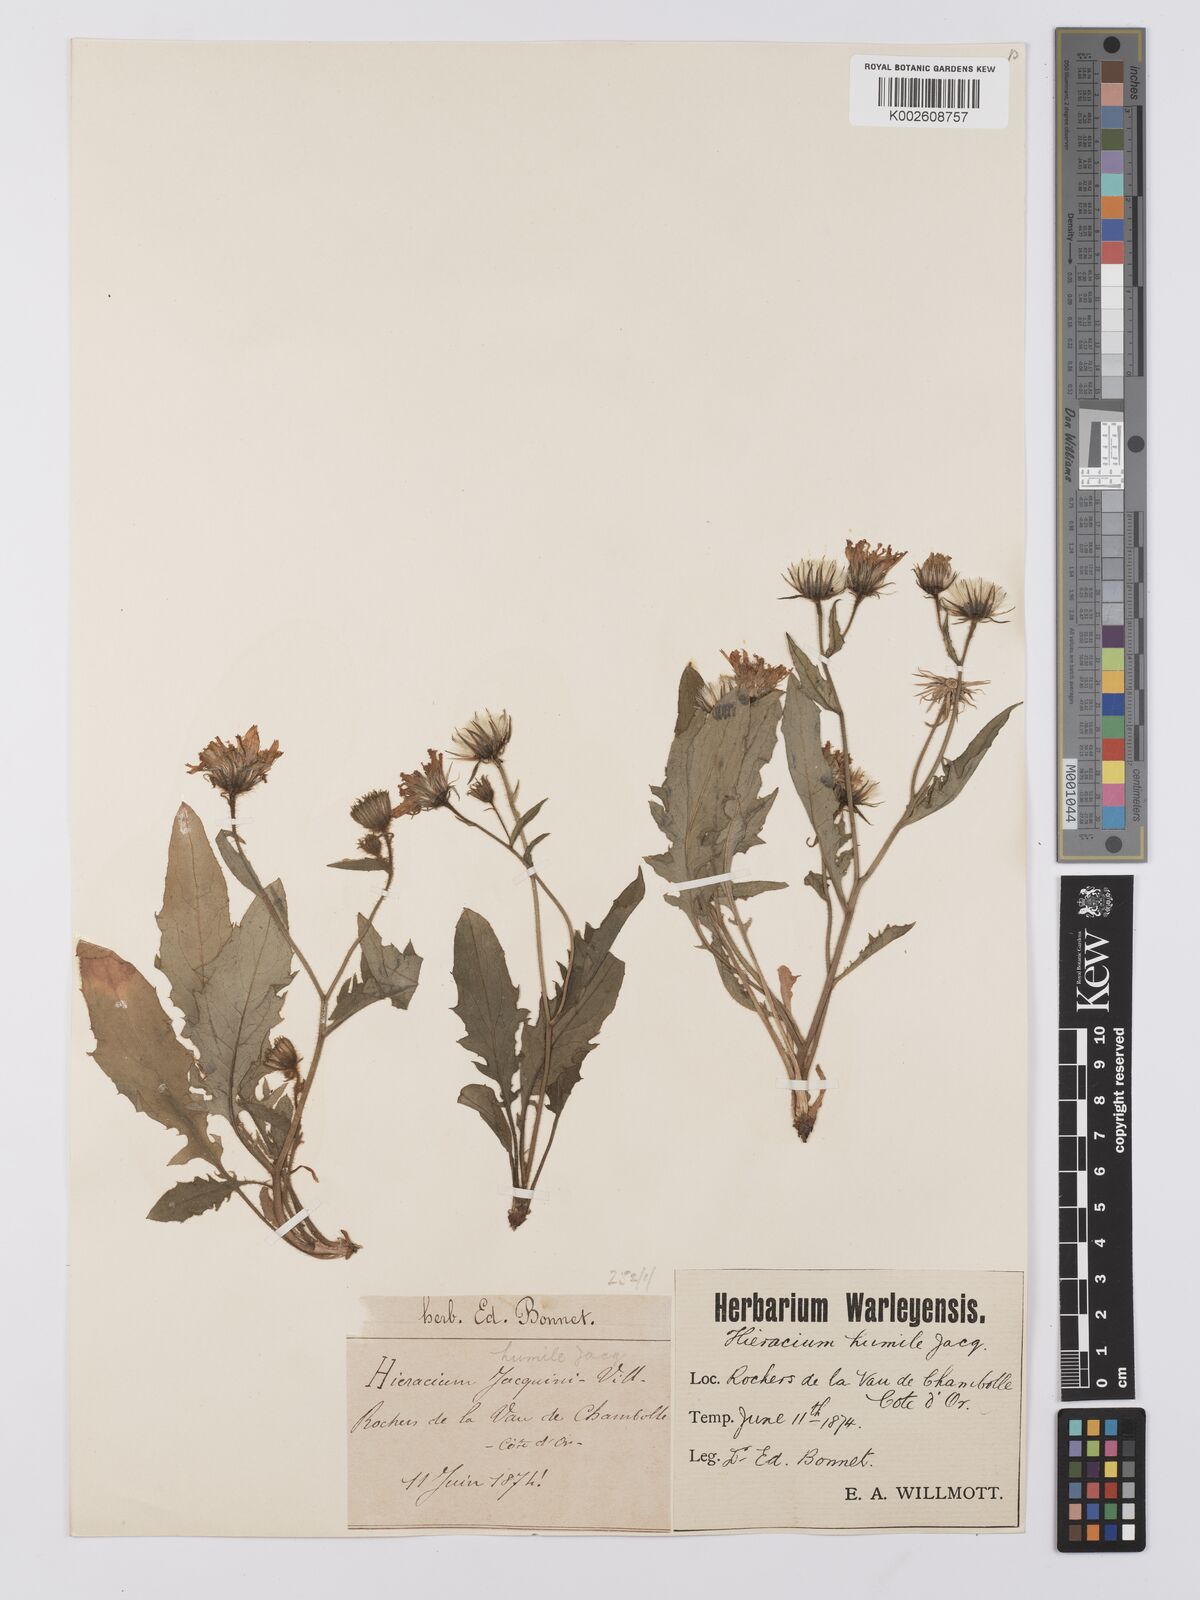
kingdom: Plantae
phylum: Tracheophyta
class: Magnoliopsida
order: Asterales
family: Asteraceae
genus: Hieracium
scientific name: Hieracium humile
